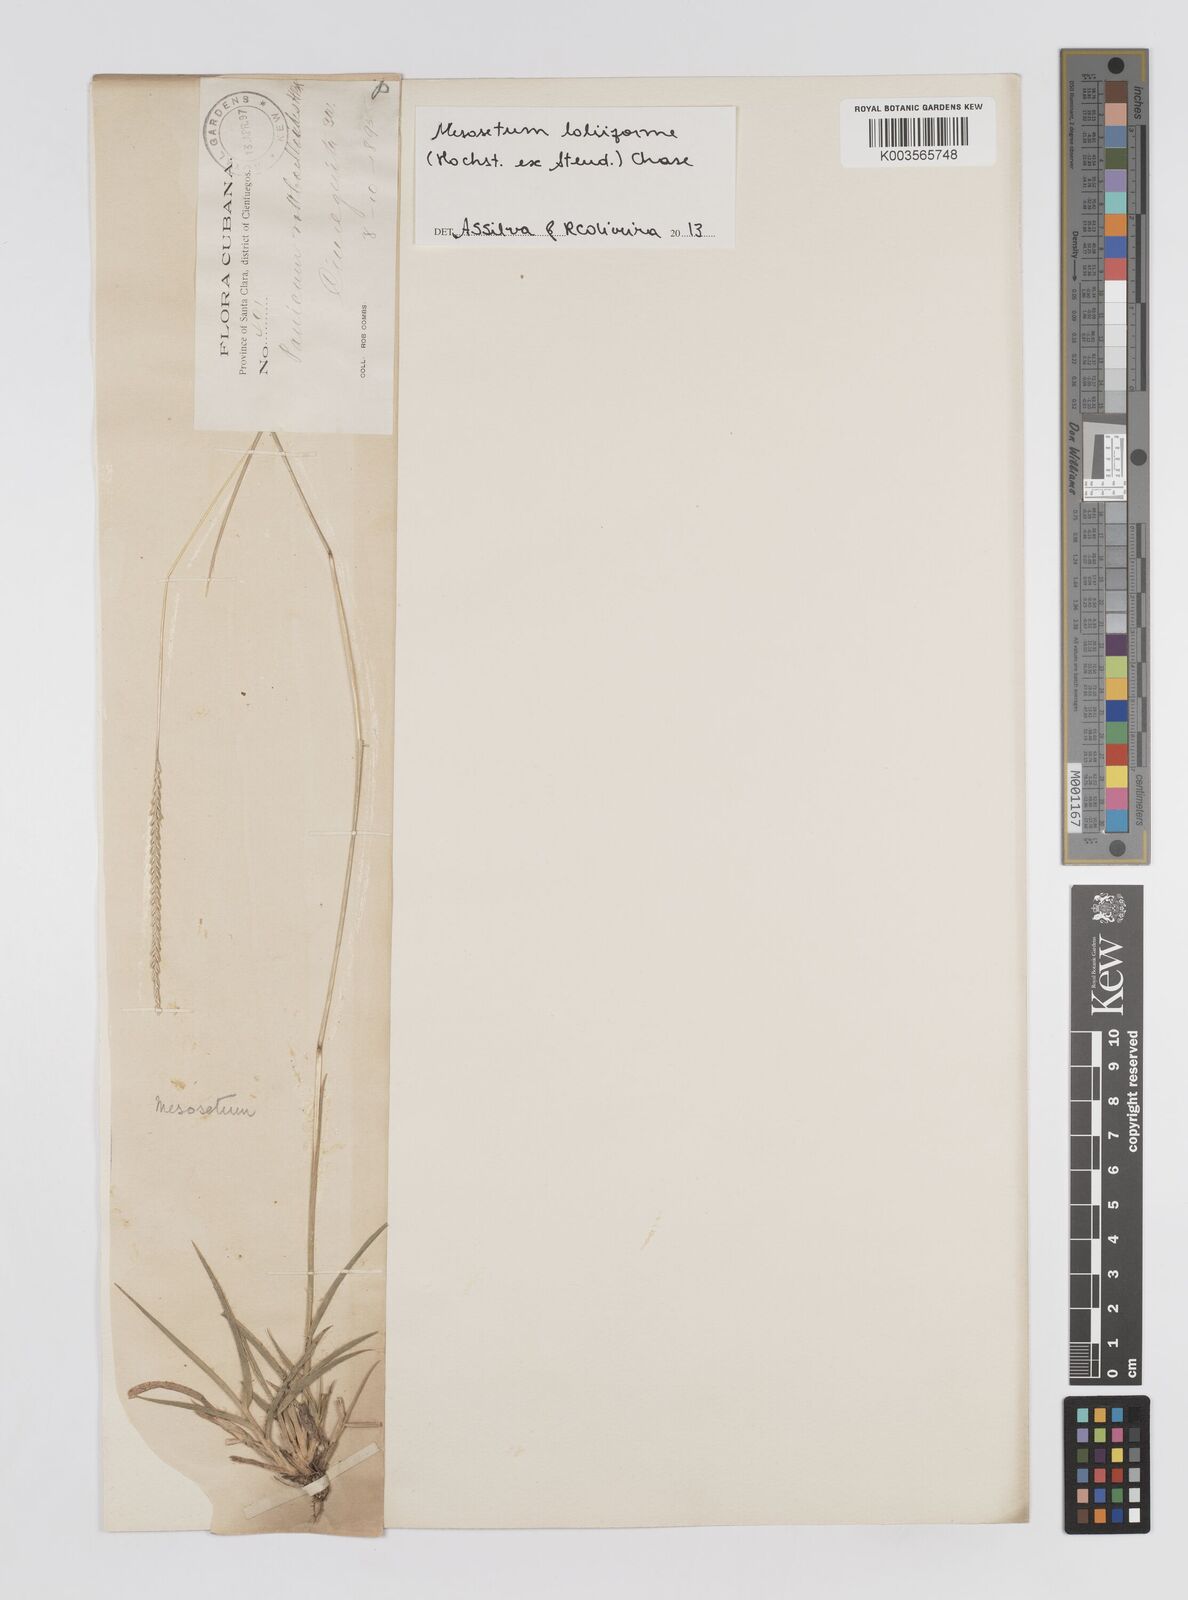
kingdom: Plantae
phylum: Tracheophyta
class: Liliopsida
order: Poales
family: Poaceae
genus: Mesosetum
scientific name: Mesosetum loliiforme
